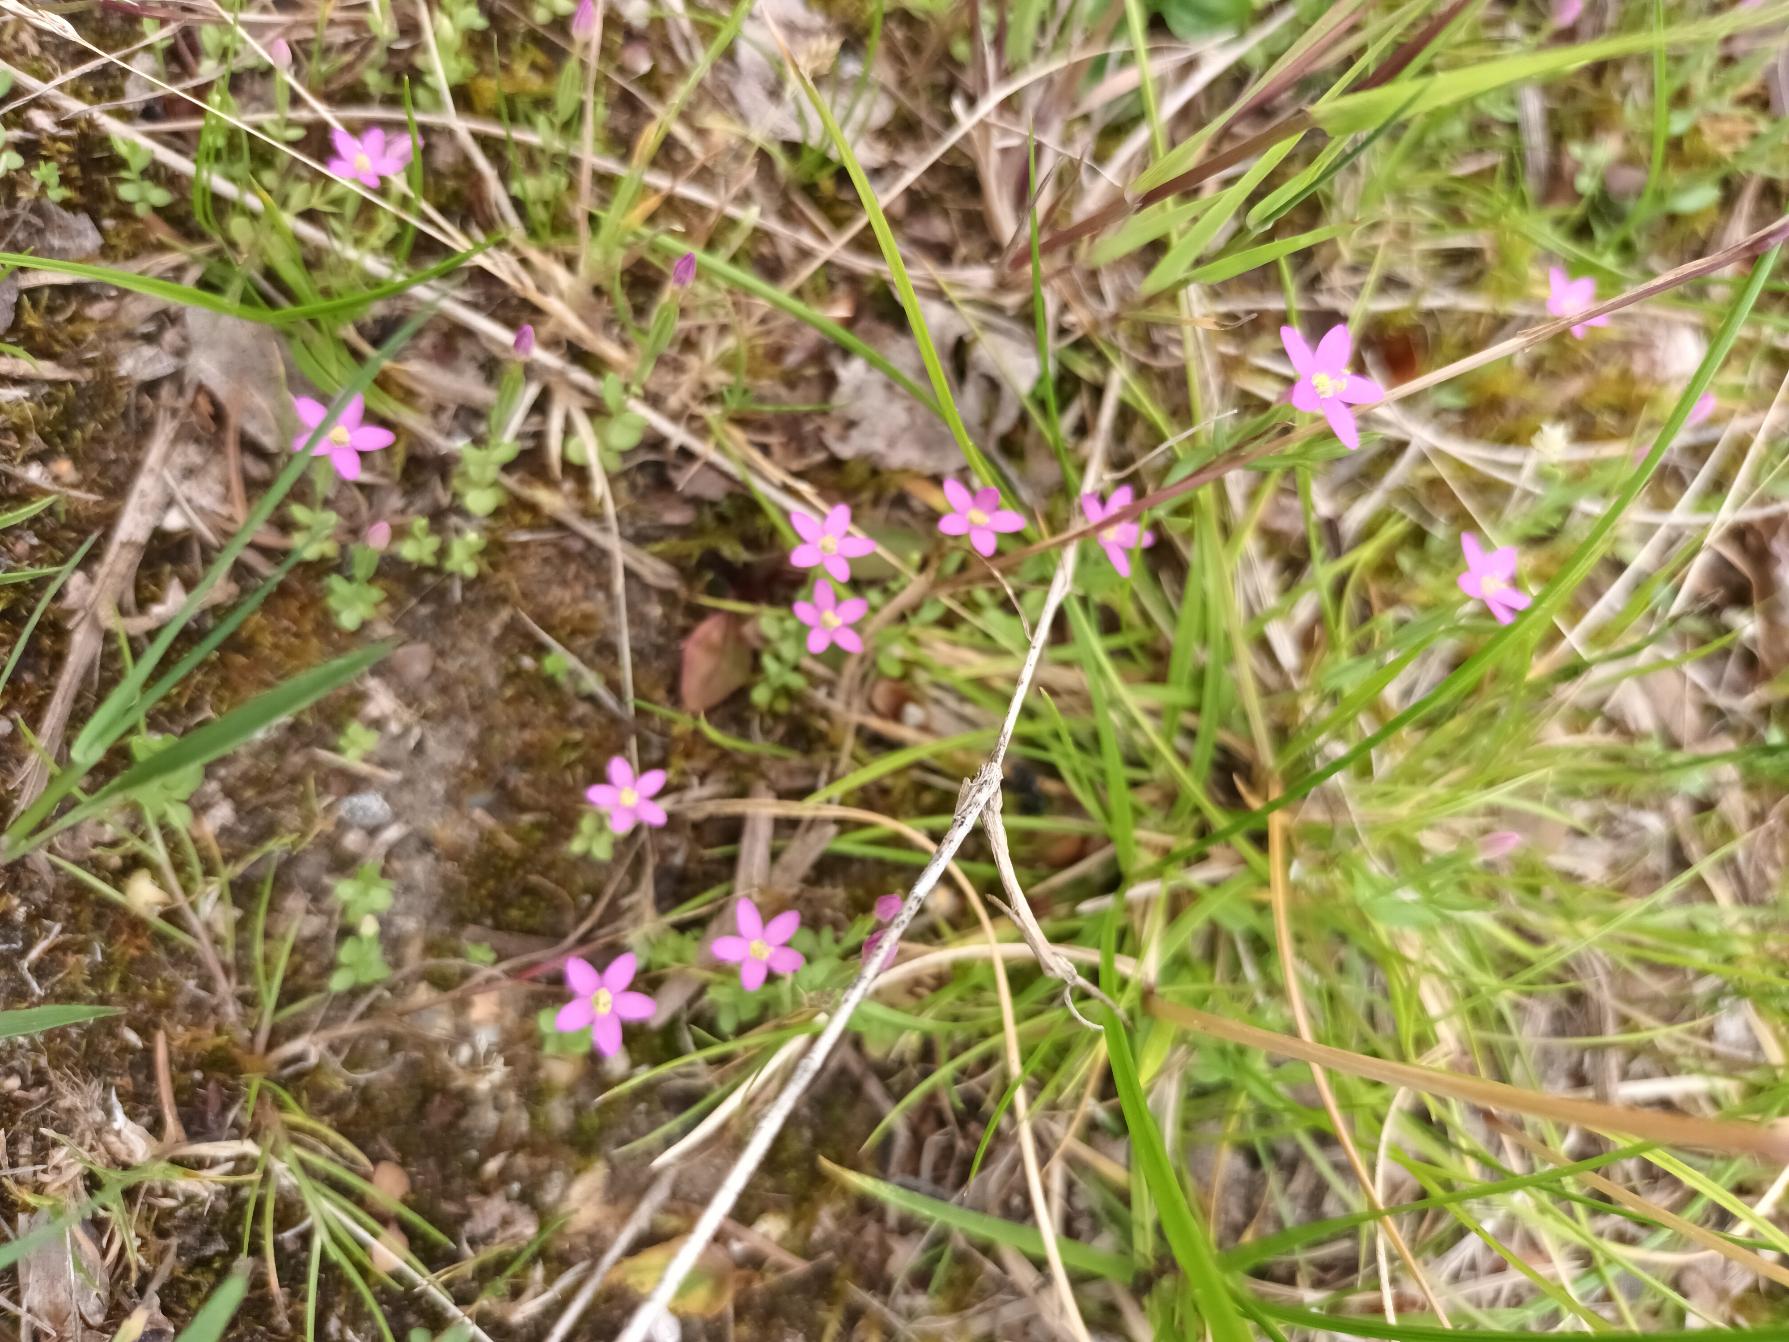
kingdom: Plantae
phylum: Tracheophyta
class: Magnoliopsida
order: Gentianales
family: Gentianaceae
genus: Centaurium
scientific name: Centaurium pulchellum
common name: Liden tusindgylden
